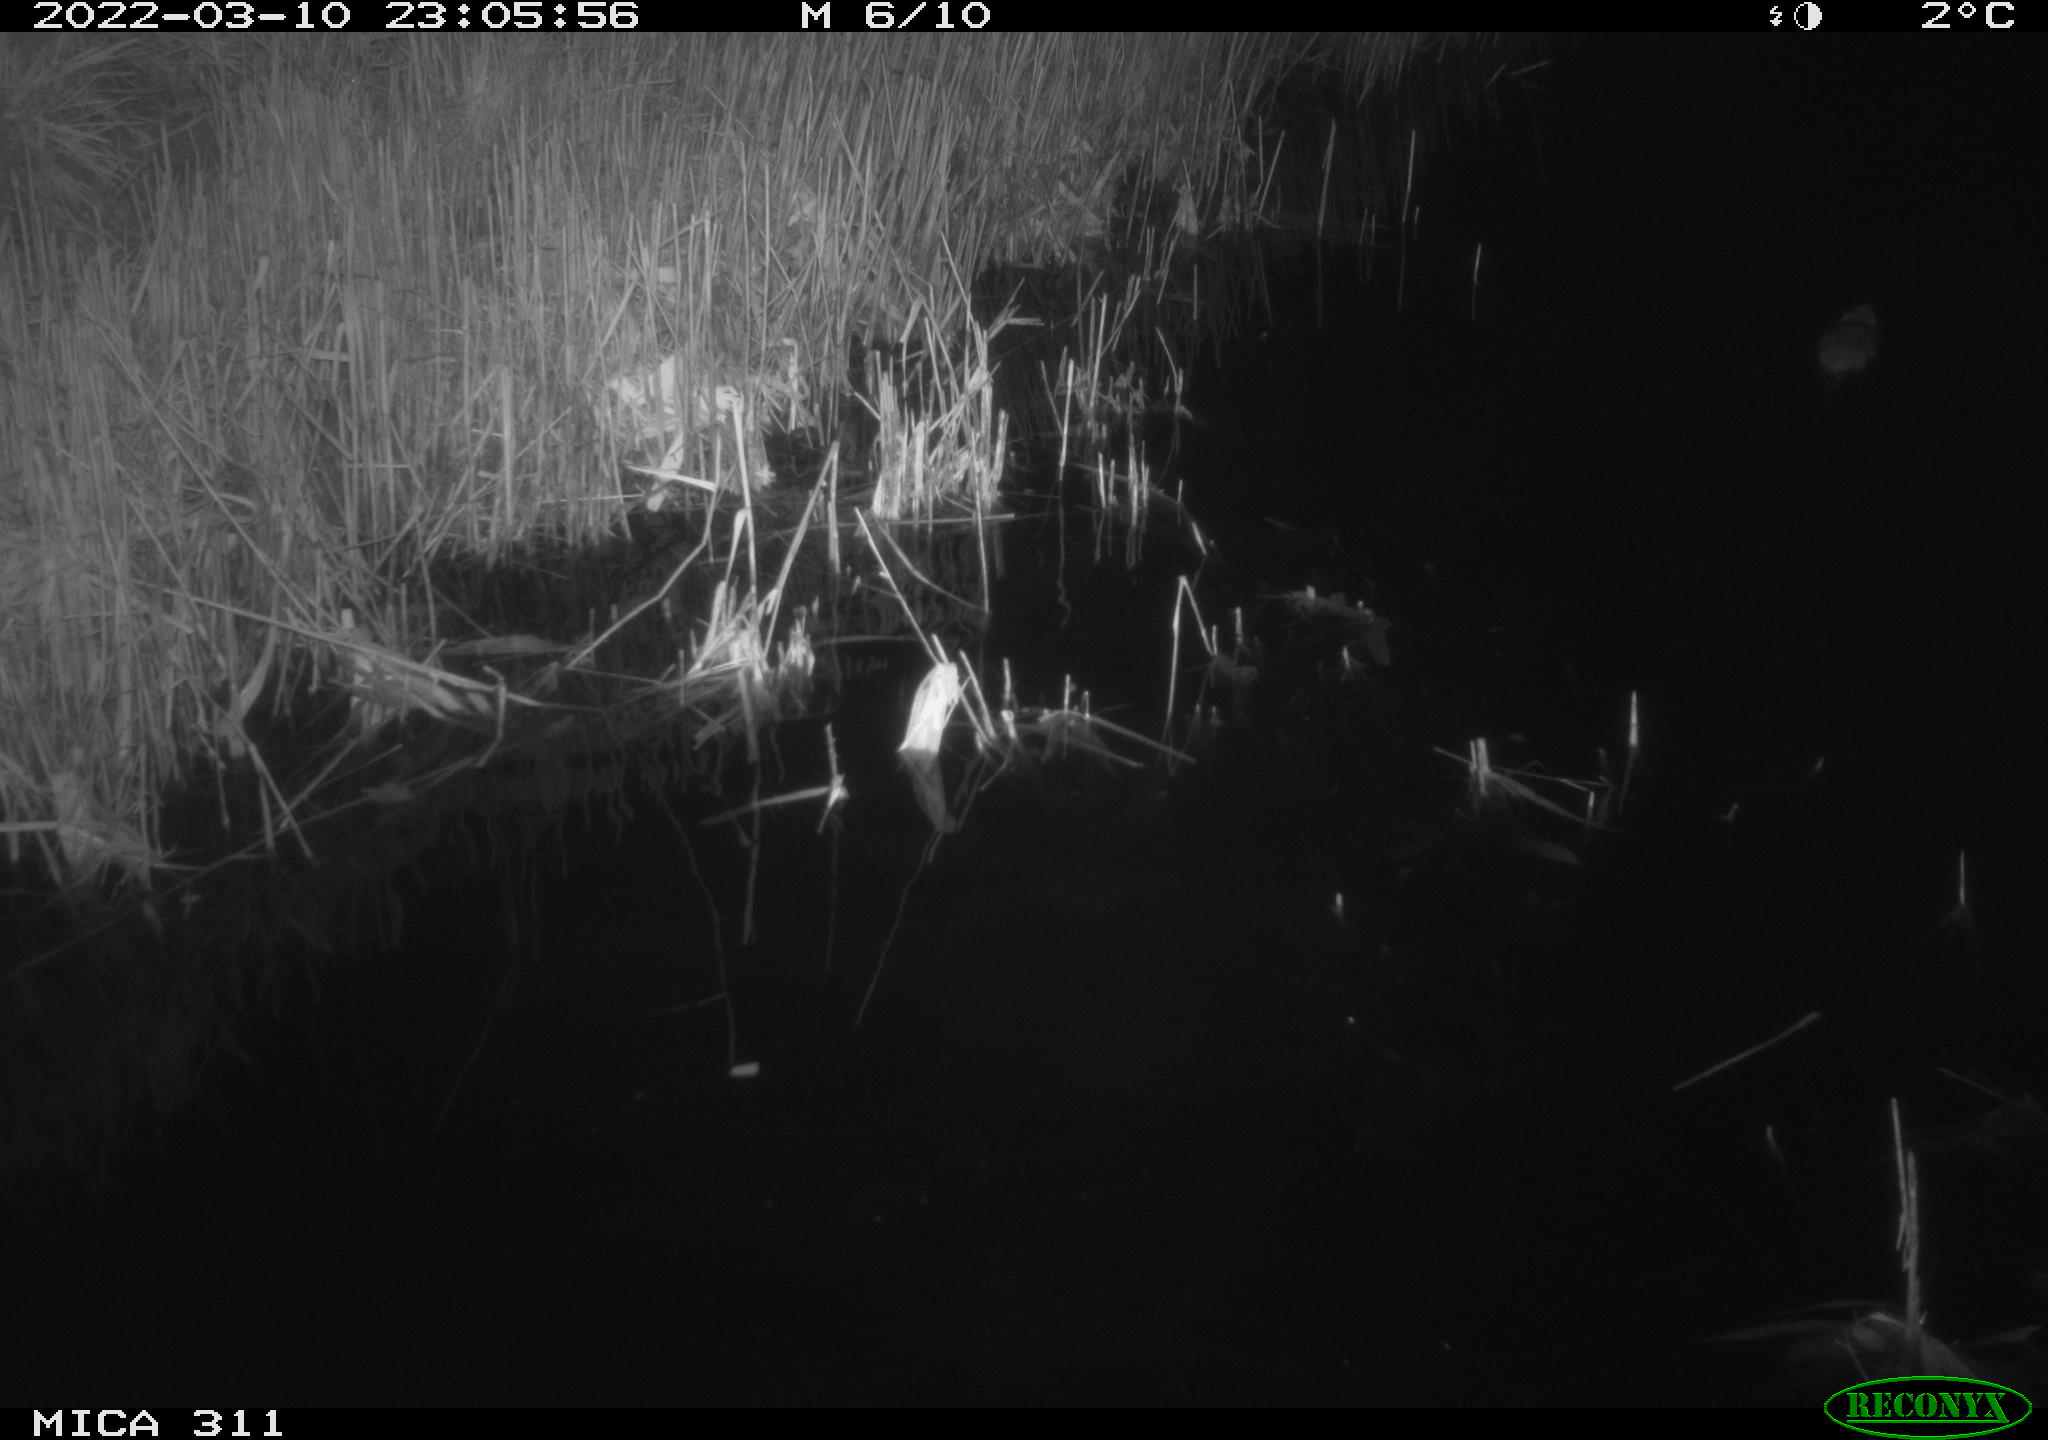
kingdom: Animalia
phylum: Chordata
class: Mammalia
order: Rodentia
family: Muridae
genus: Rattus
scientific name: Rattus norvegicus
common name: Brown rat
